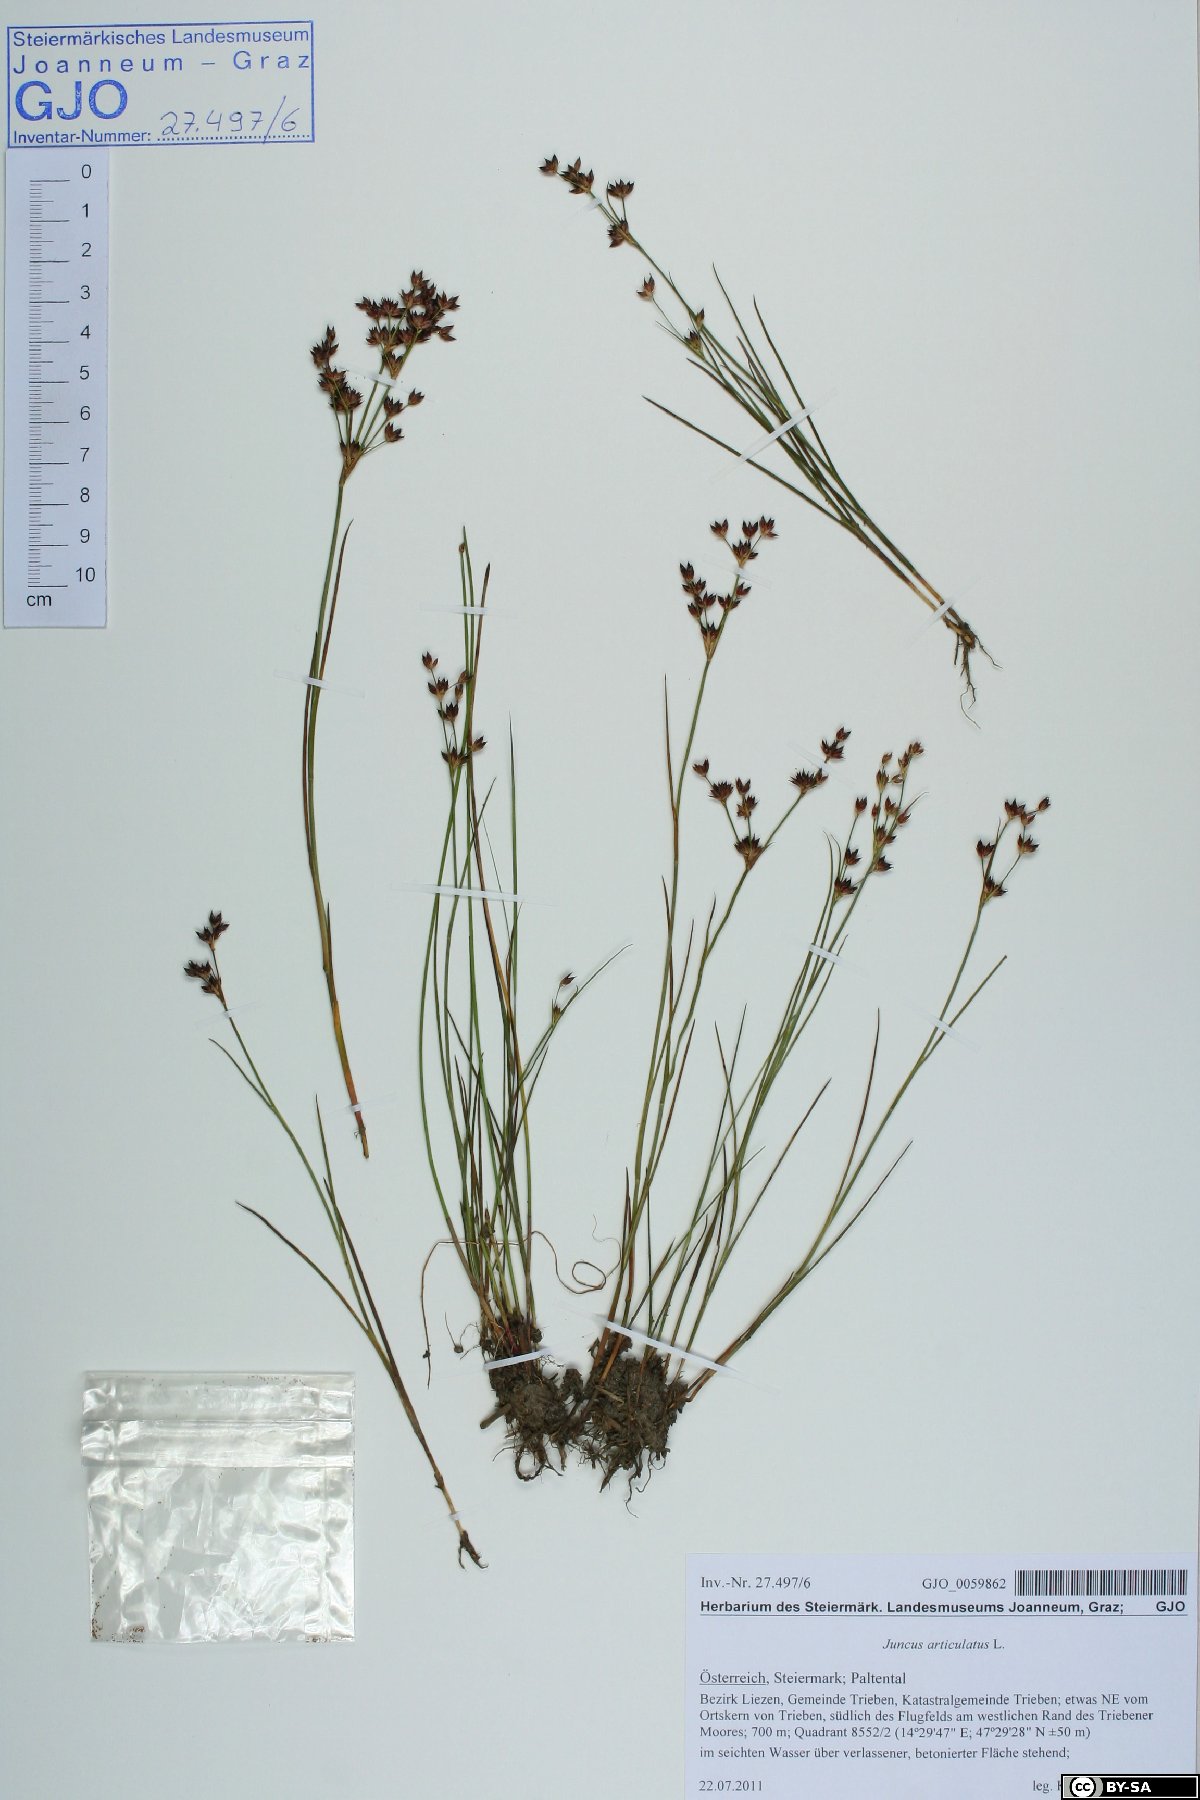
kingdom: Plantae
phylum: Tracheophyta
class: Liliopsida
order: Poales
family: Juncaceae
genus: Juncus
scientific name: Juncus articulatus
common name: Jointed rush
